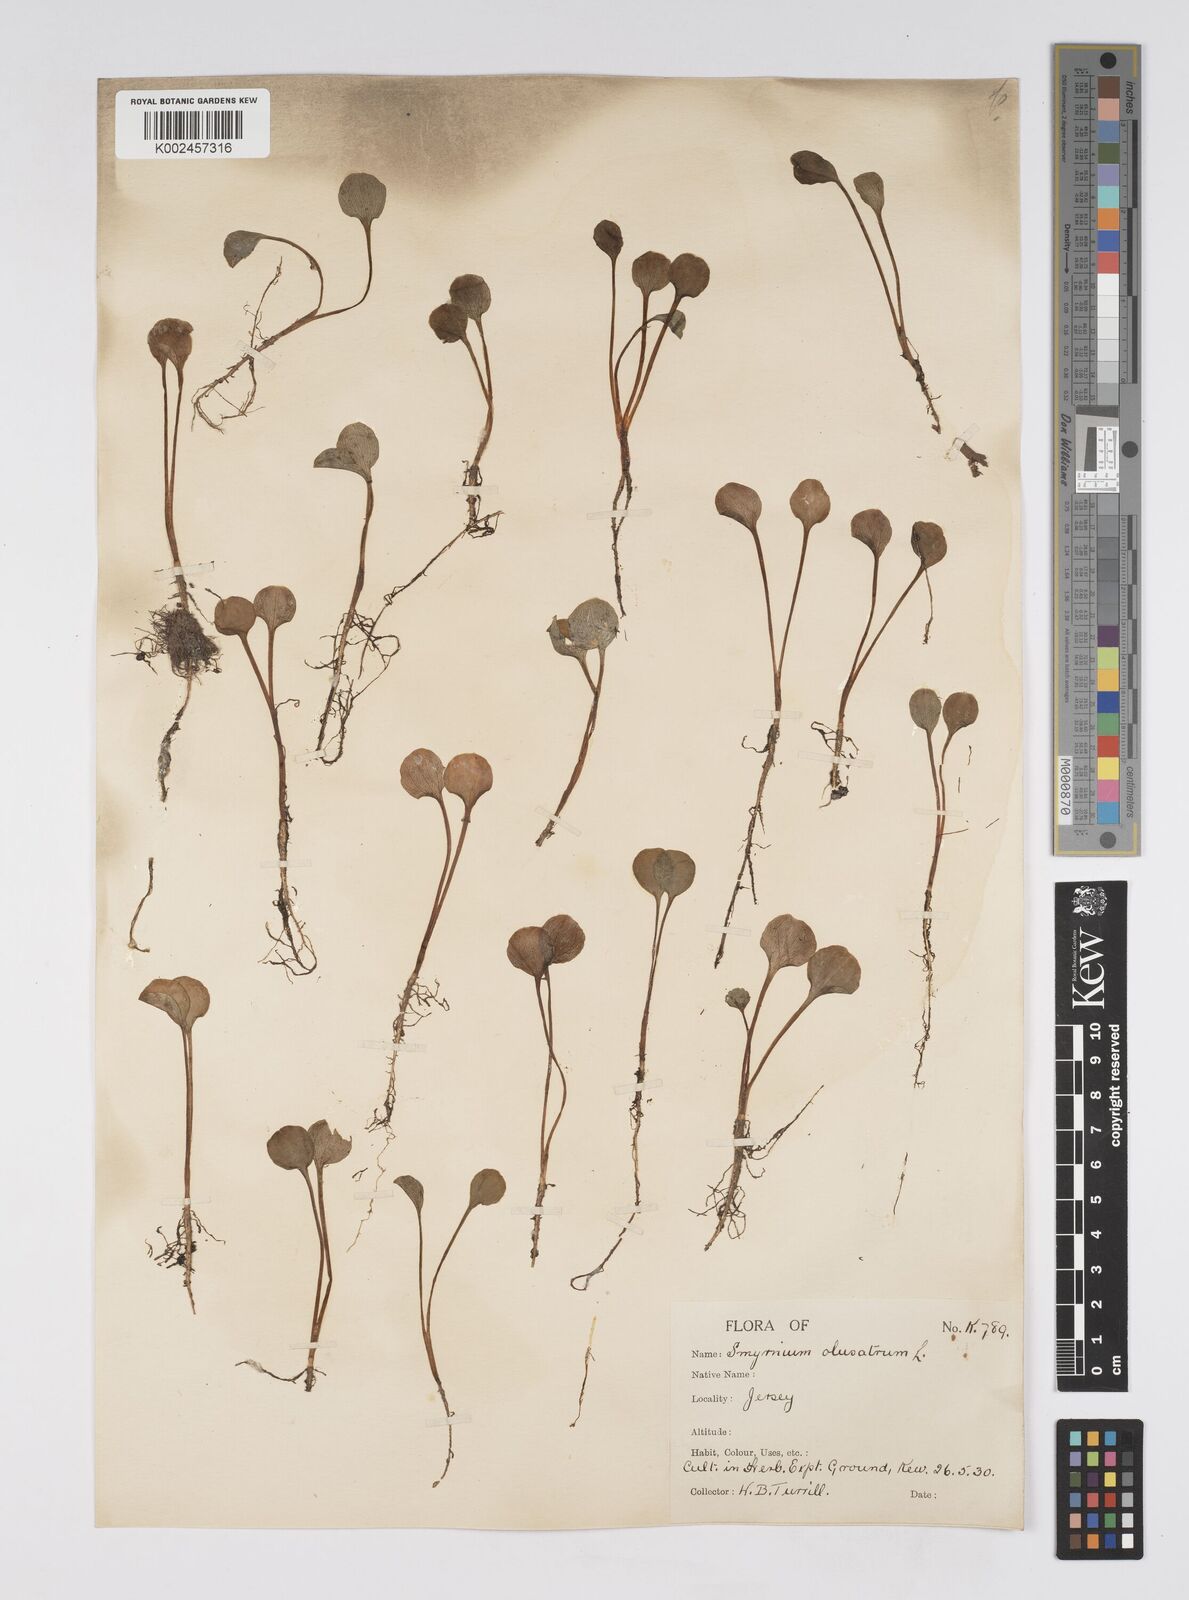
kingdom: Plantae
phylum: Tracheophyta
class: Magnoliopsida
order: Apiales
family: Apiaceae
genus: Smyrnium
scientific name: Smyrnium olusatrum
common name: Alexanders
